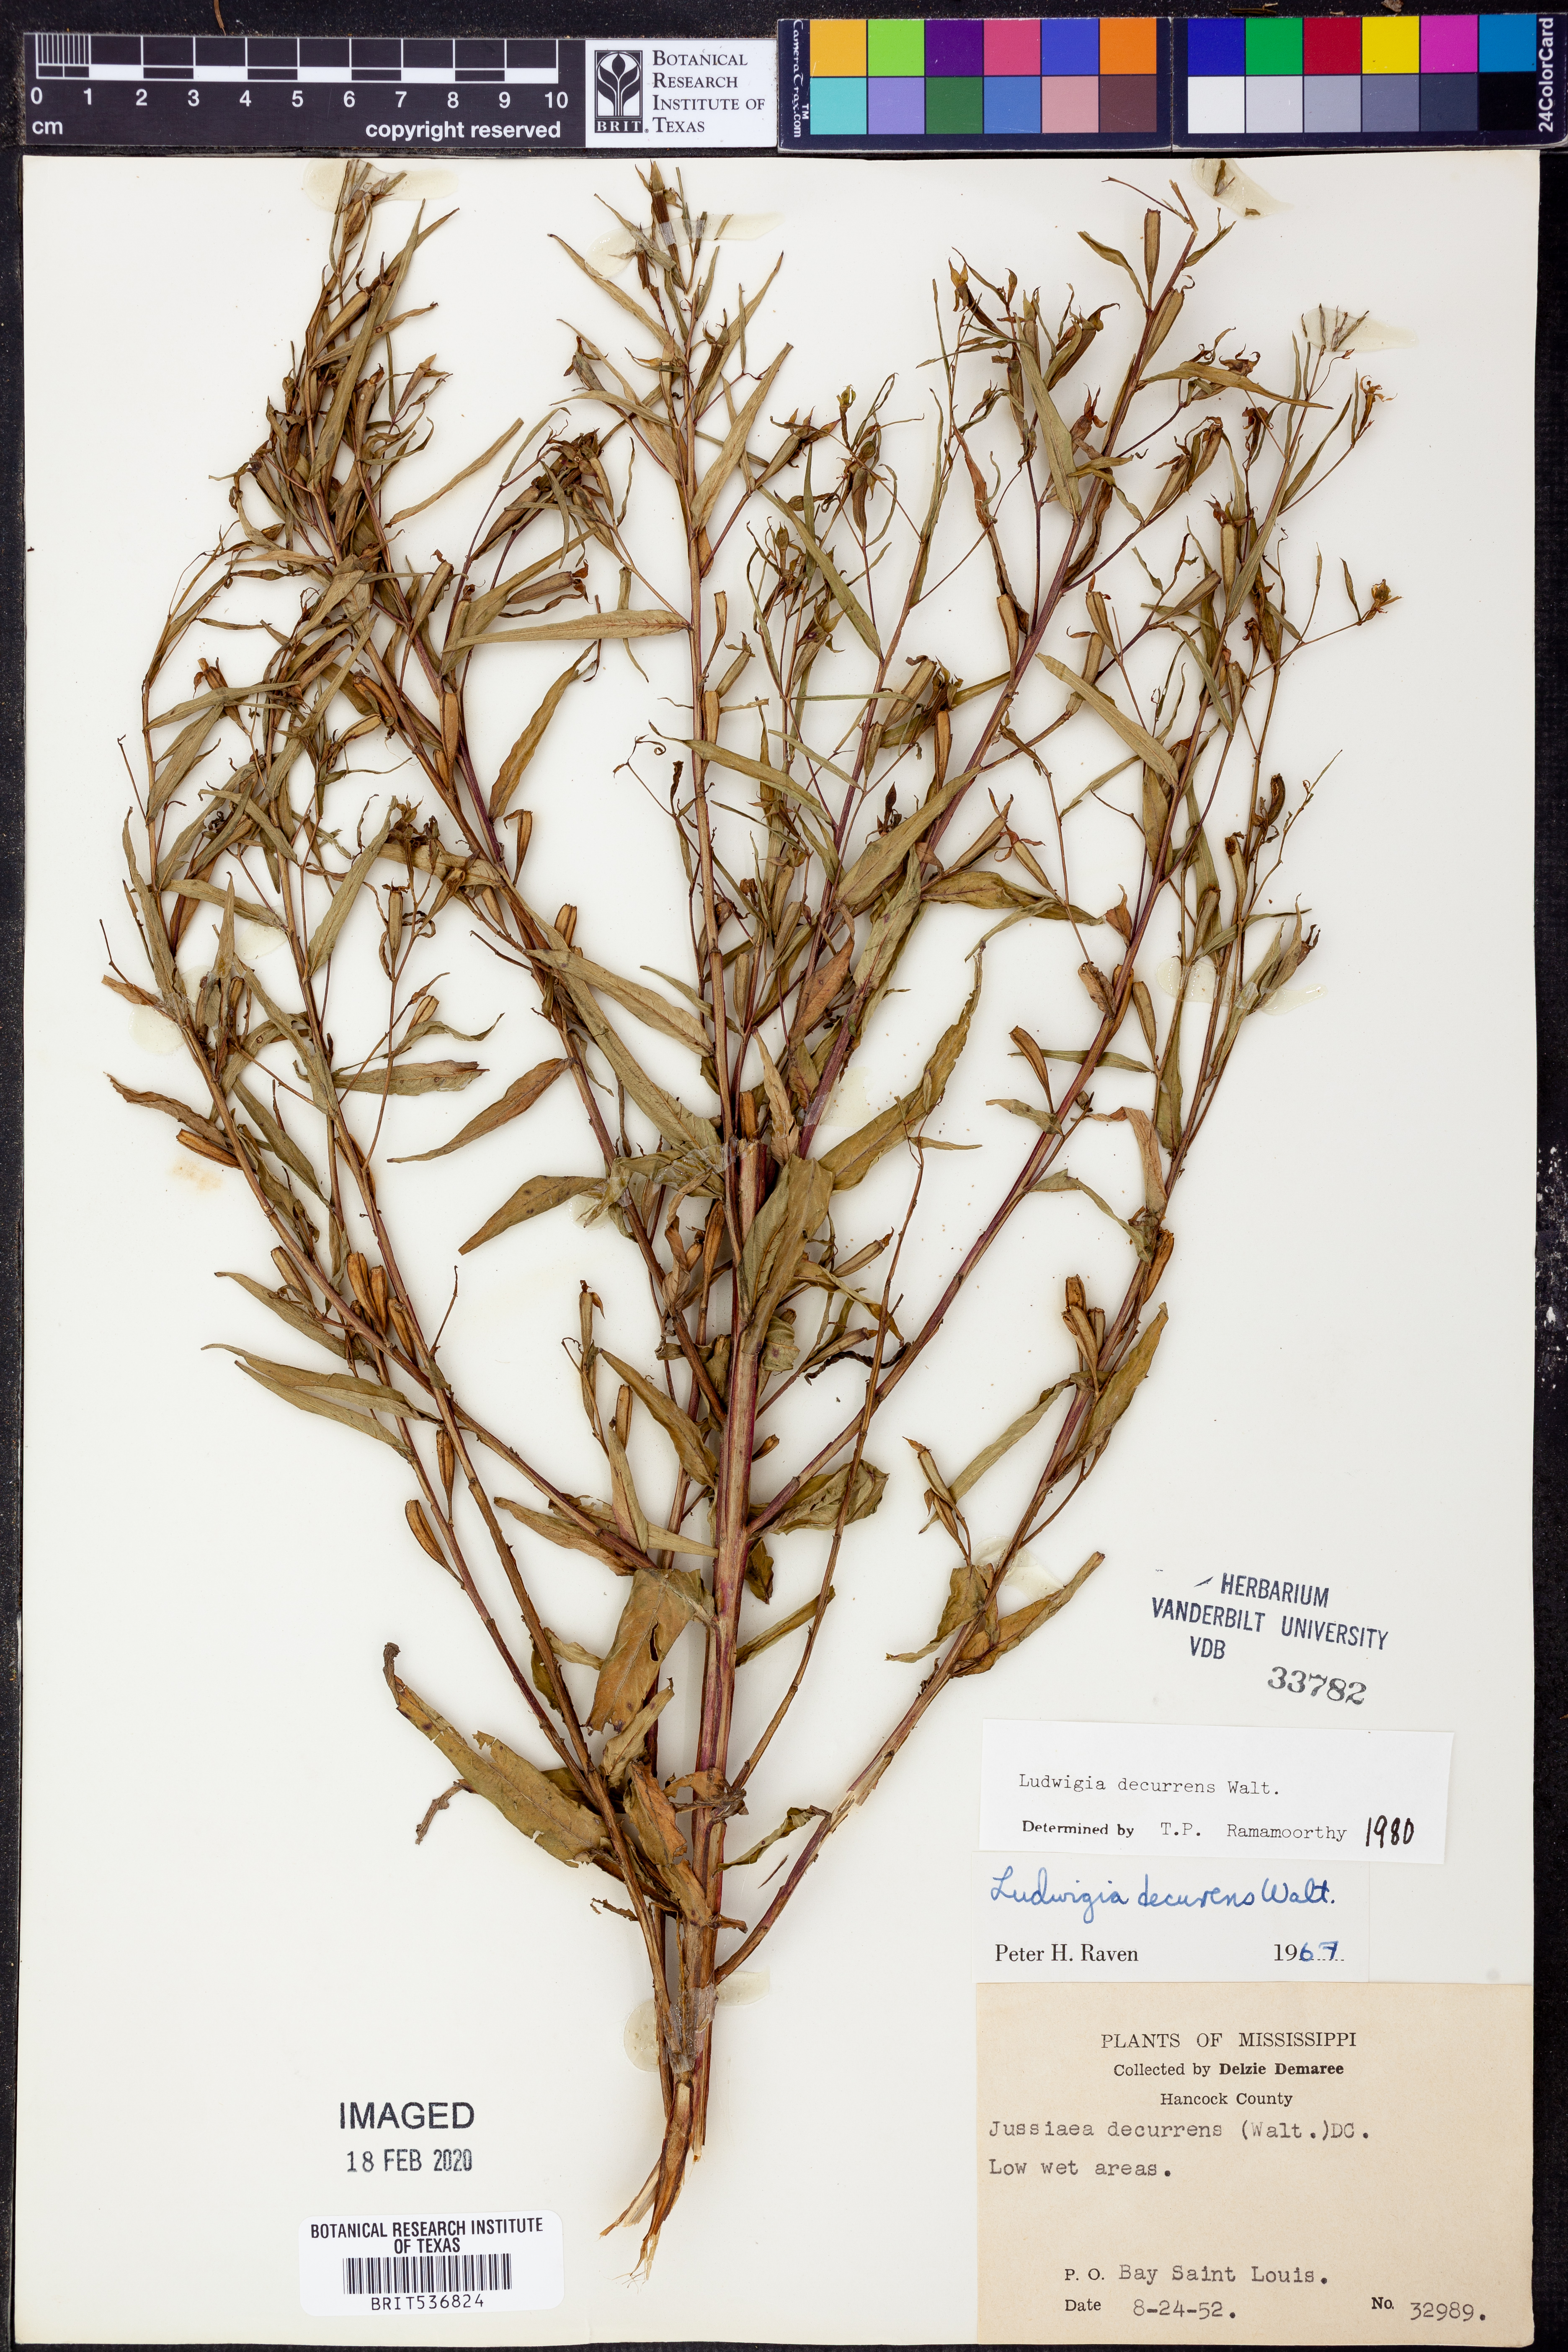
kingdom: Plantae
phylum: Tracheophyta
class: Magnoliopsida
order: Myrtales
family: Onagraceae
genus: Ludwigia
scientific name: Ludwigia decurrens
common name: Winged water-primrose
